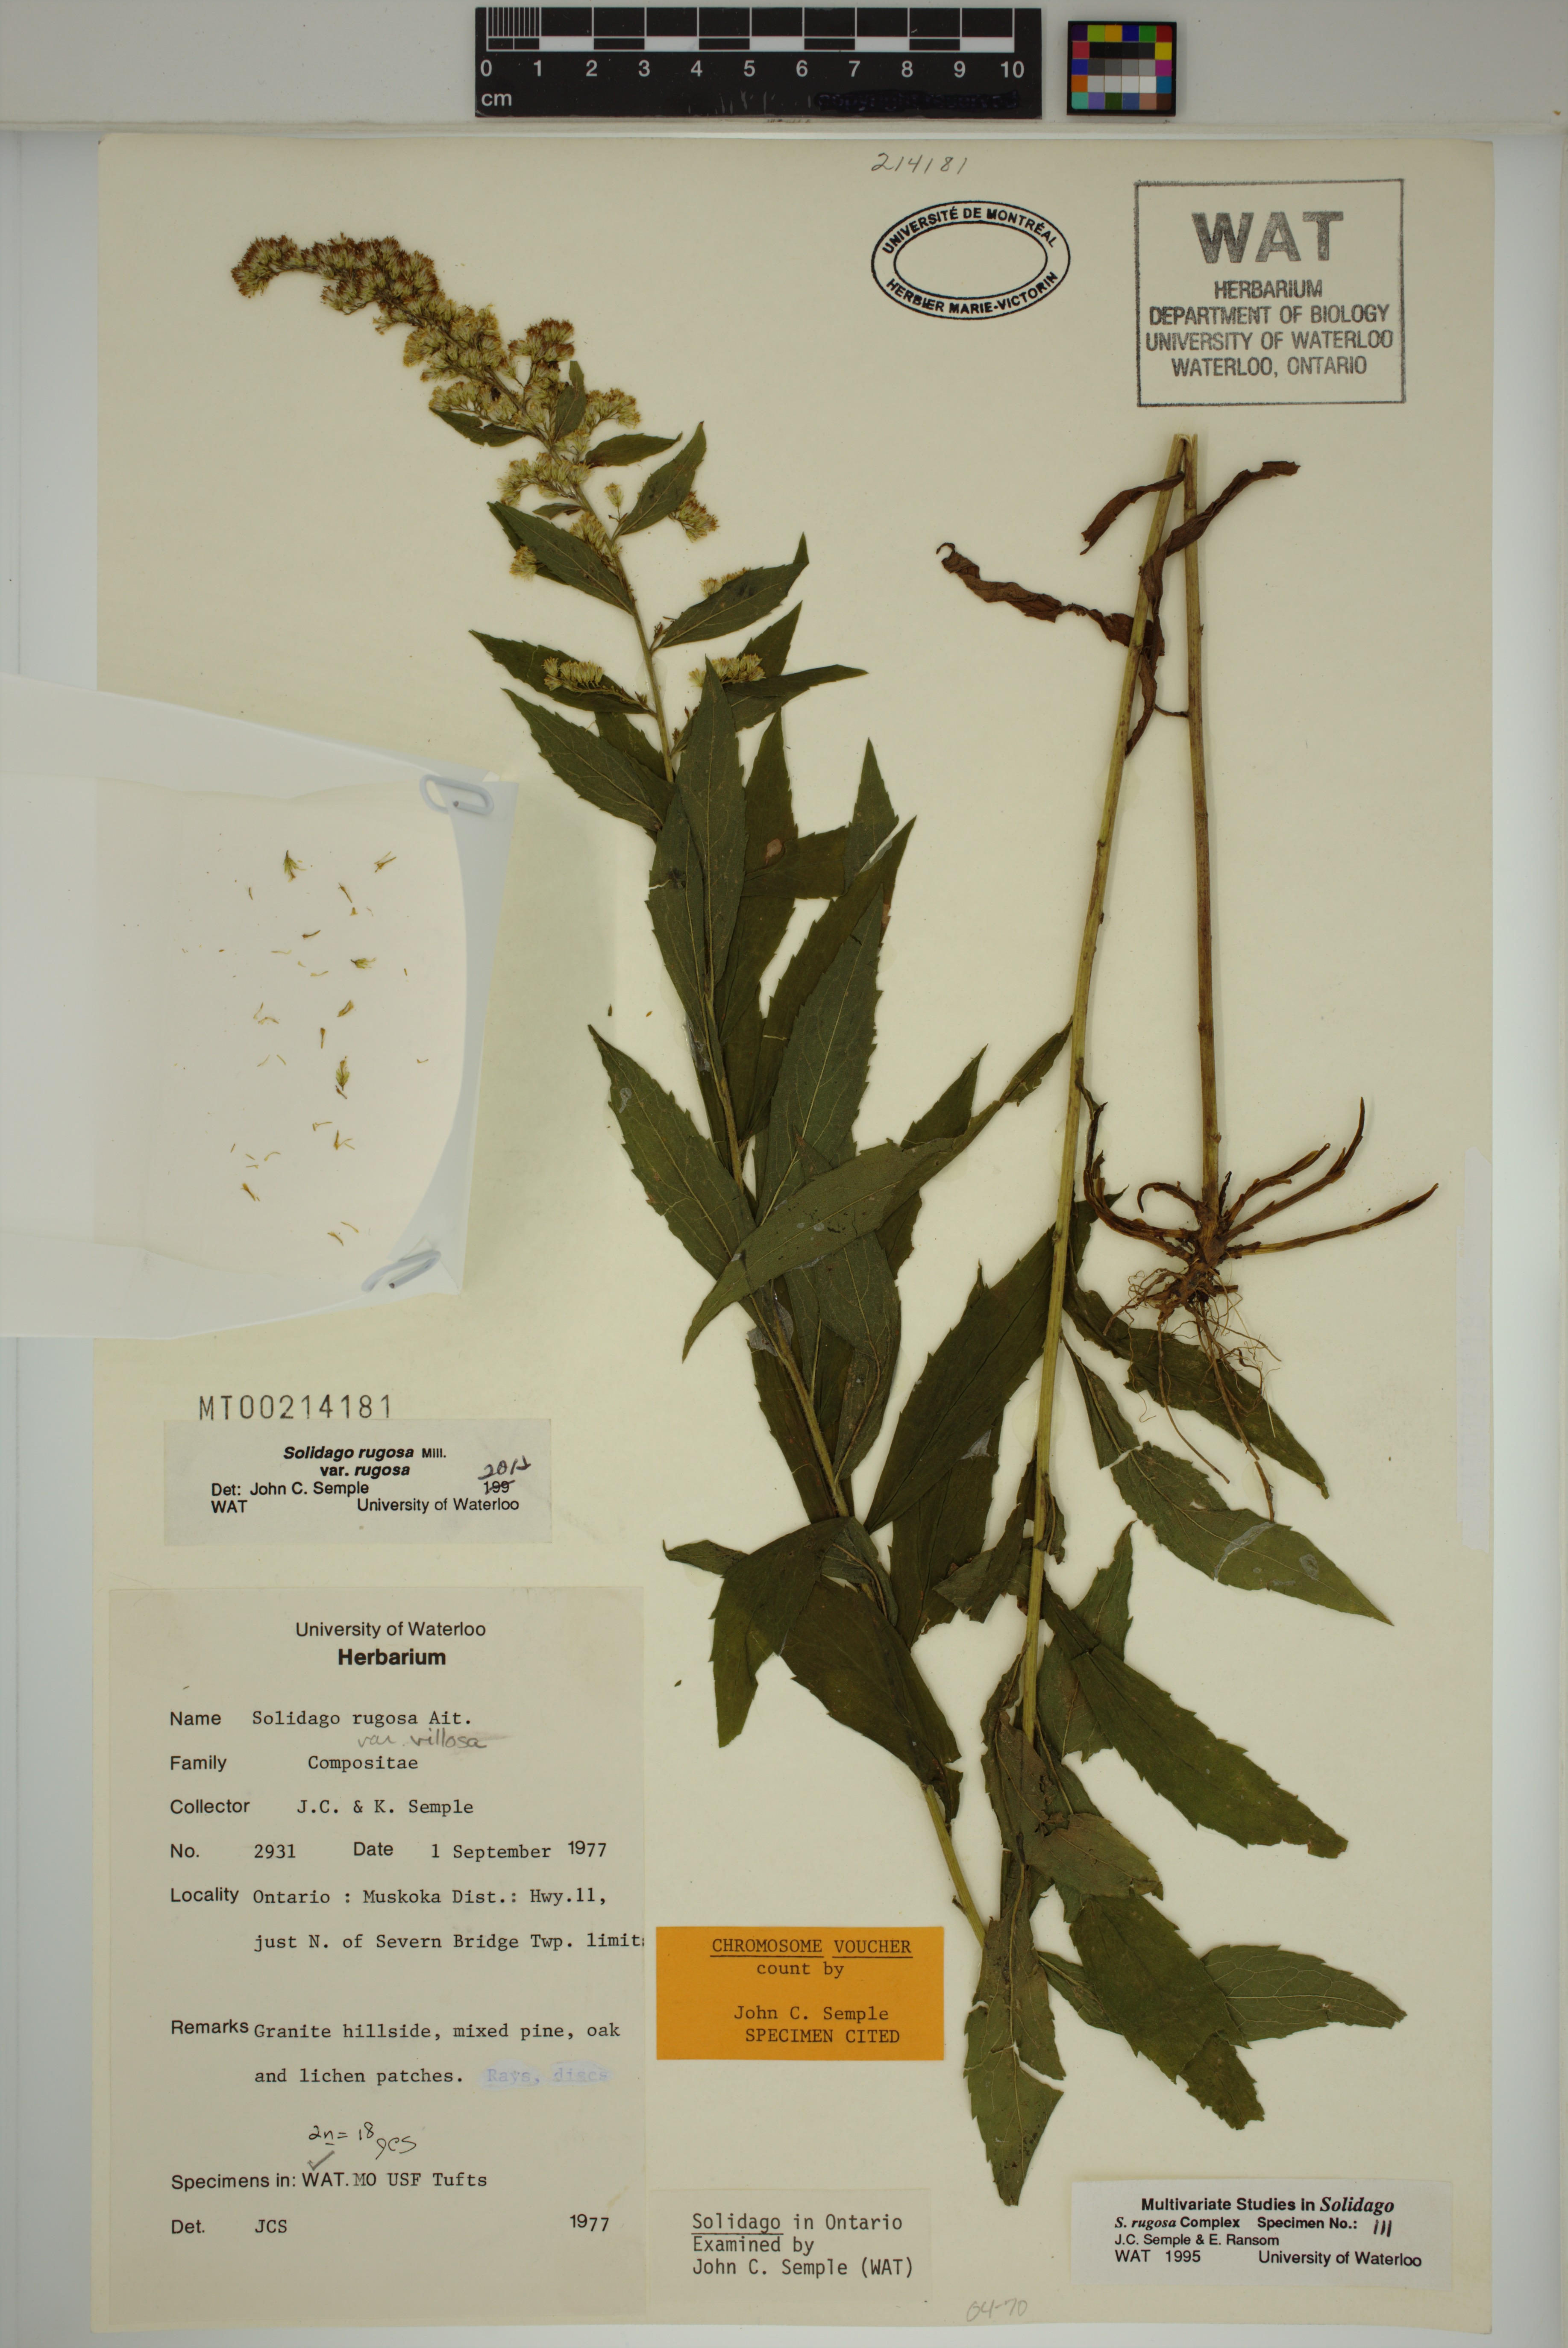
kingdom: Plantae
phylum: Tracheophyta
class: Magnoliopsida
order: Asterales
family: Asteraceae
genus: Solidago
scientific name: Solidago rugosa
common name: Rough-stemmed goldenrod
